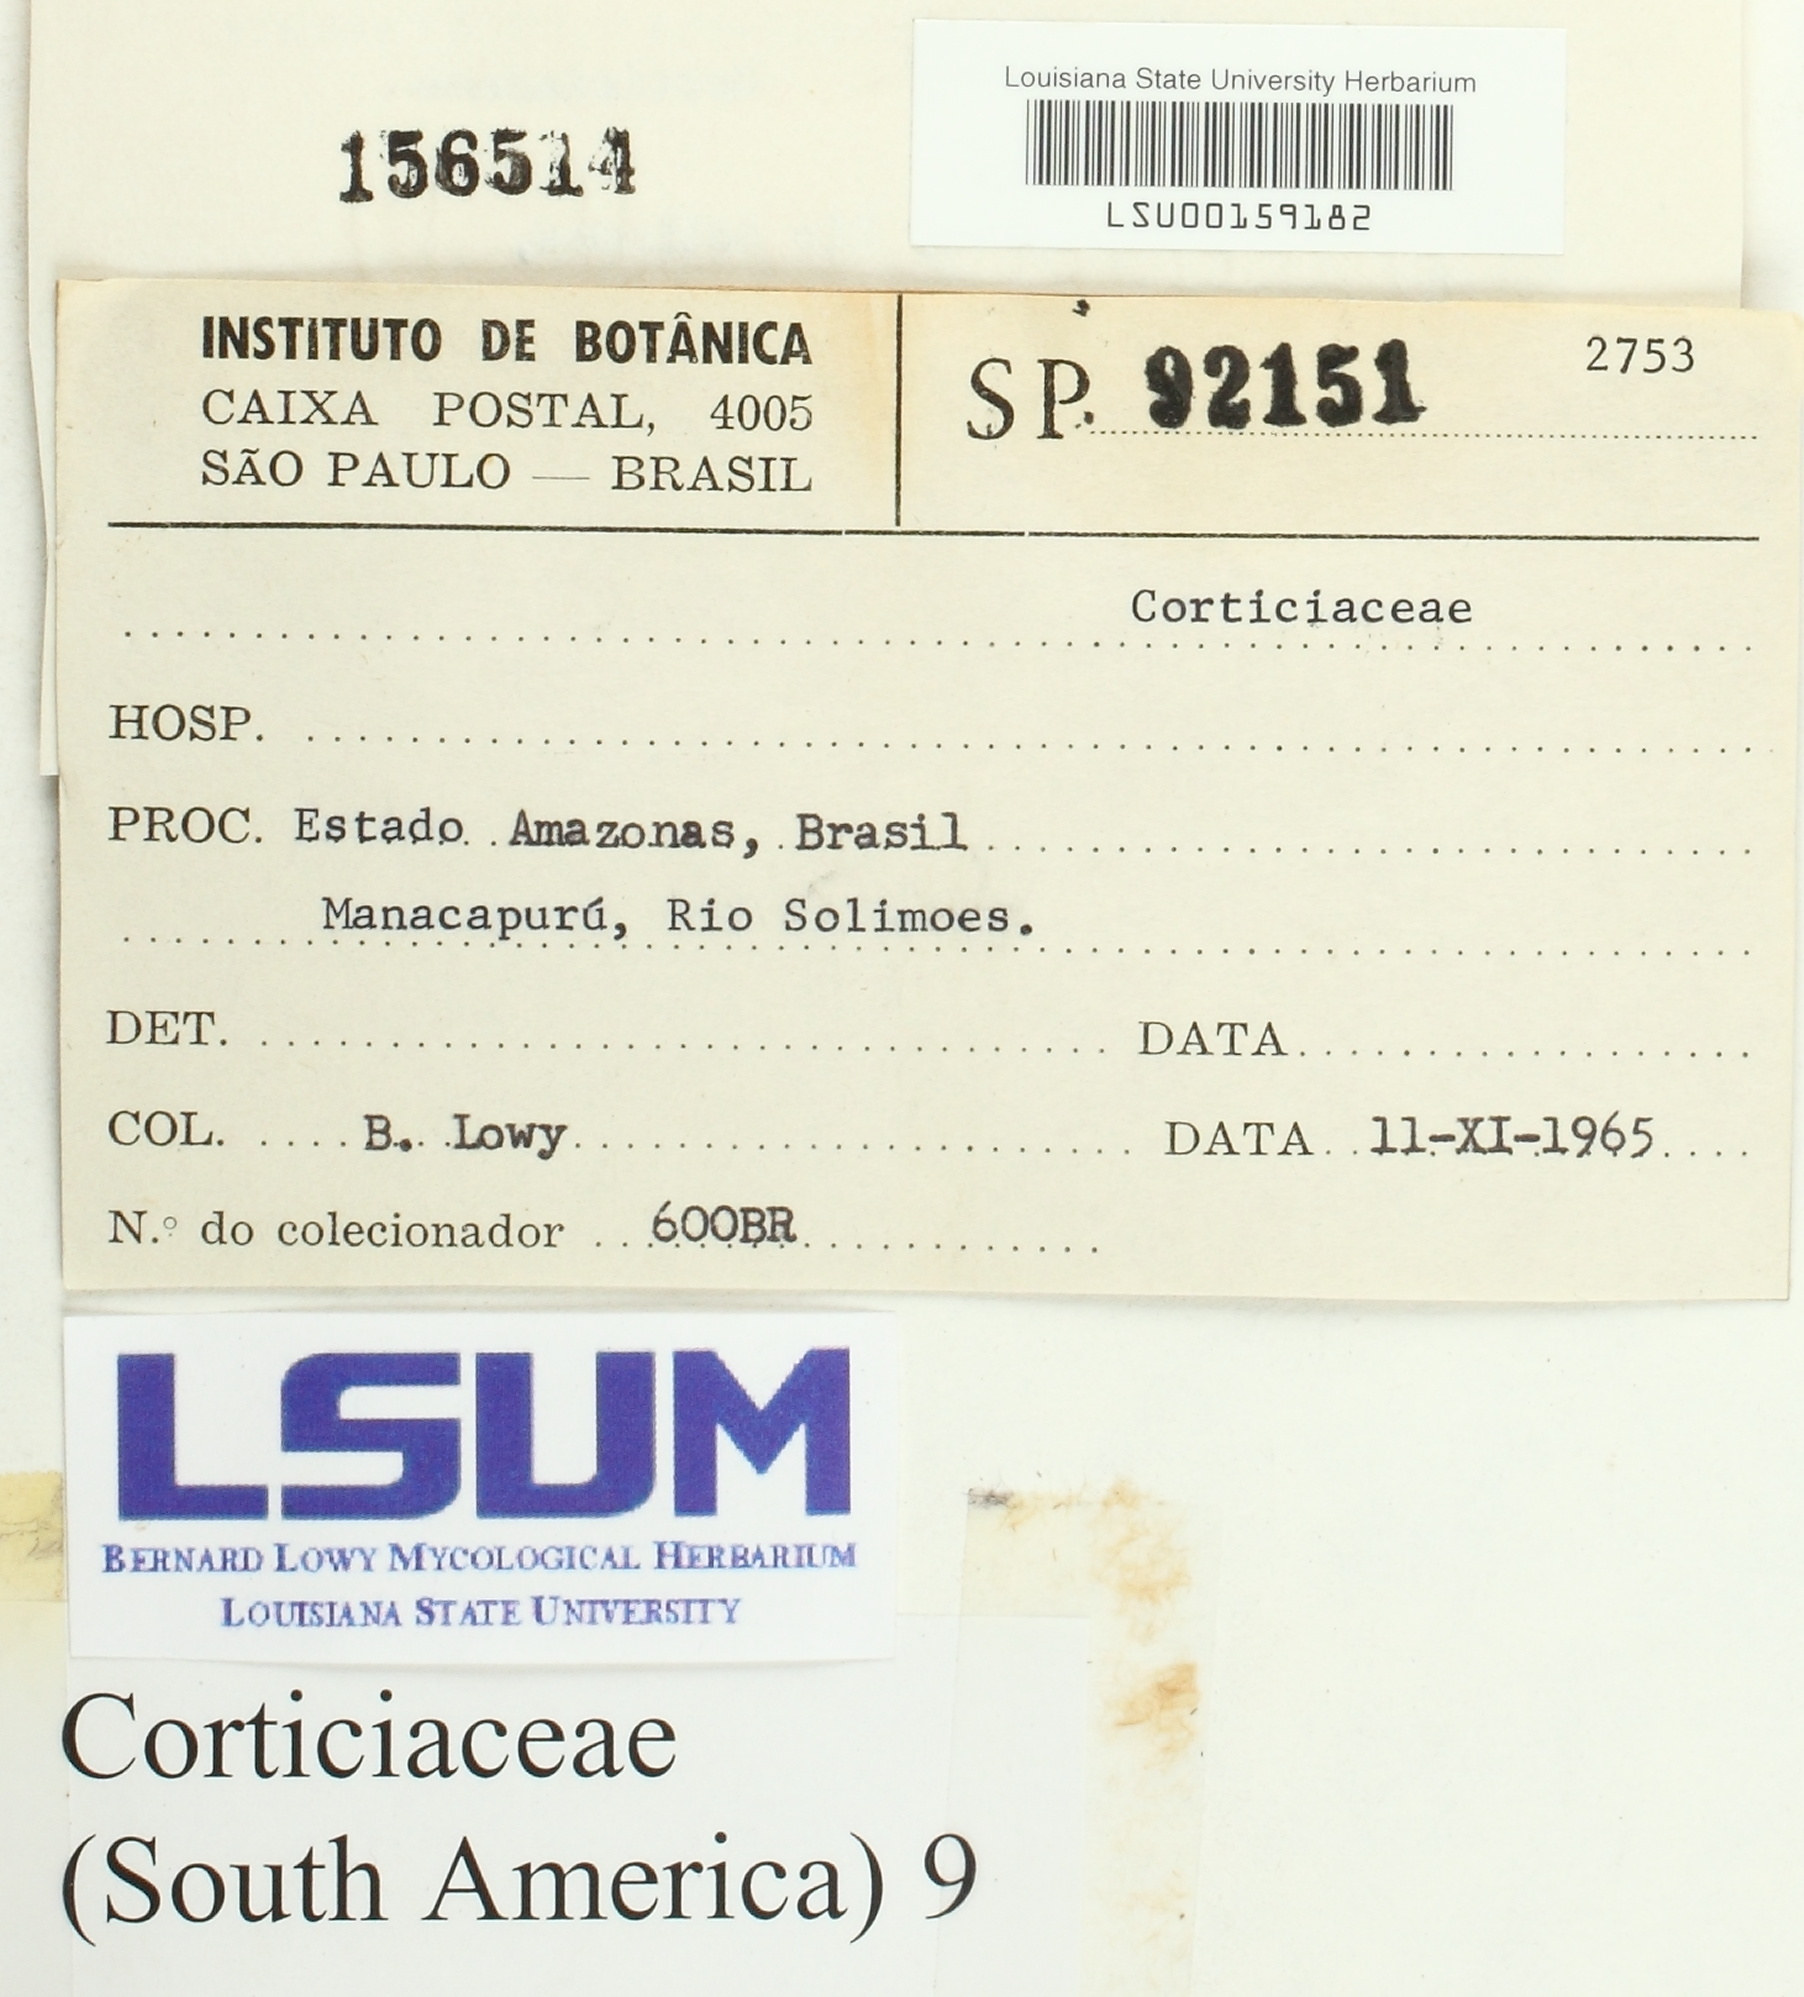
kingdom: Fungi
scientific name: Fungi
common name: Fungi
